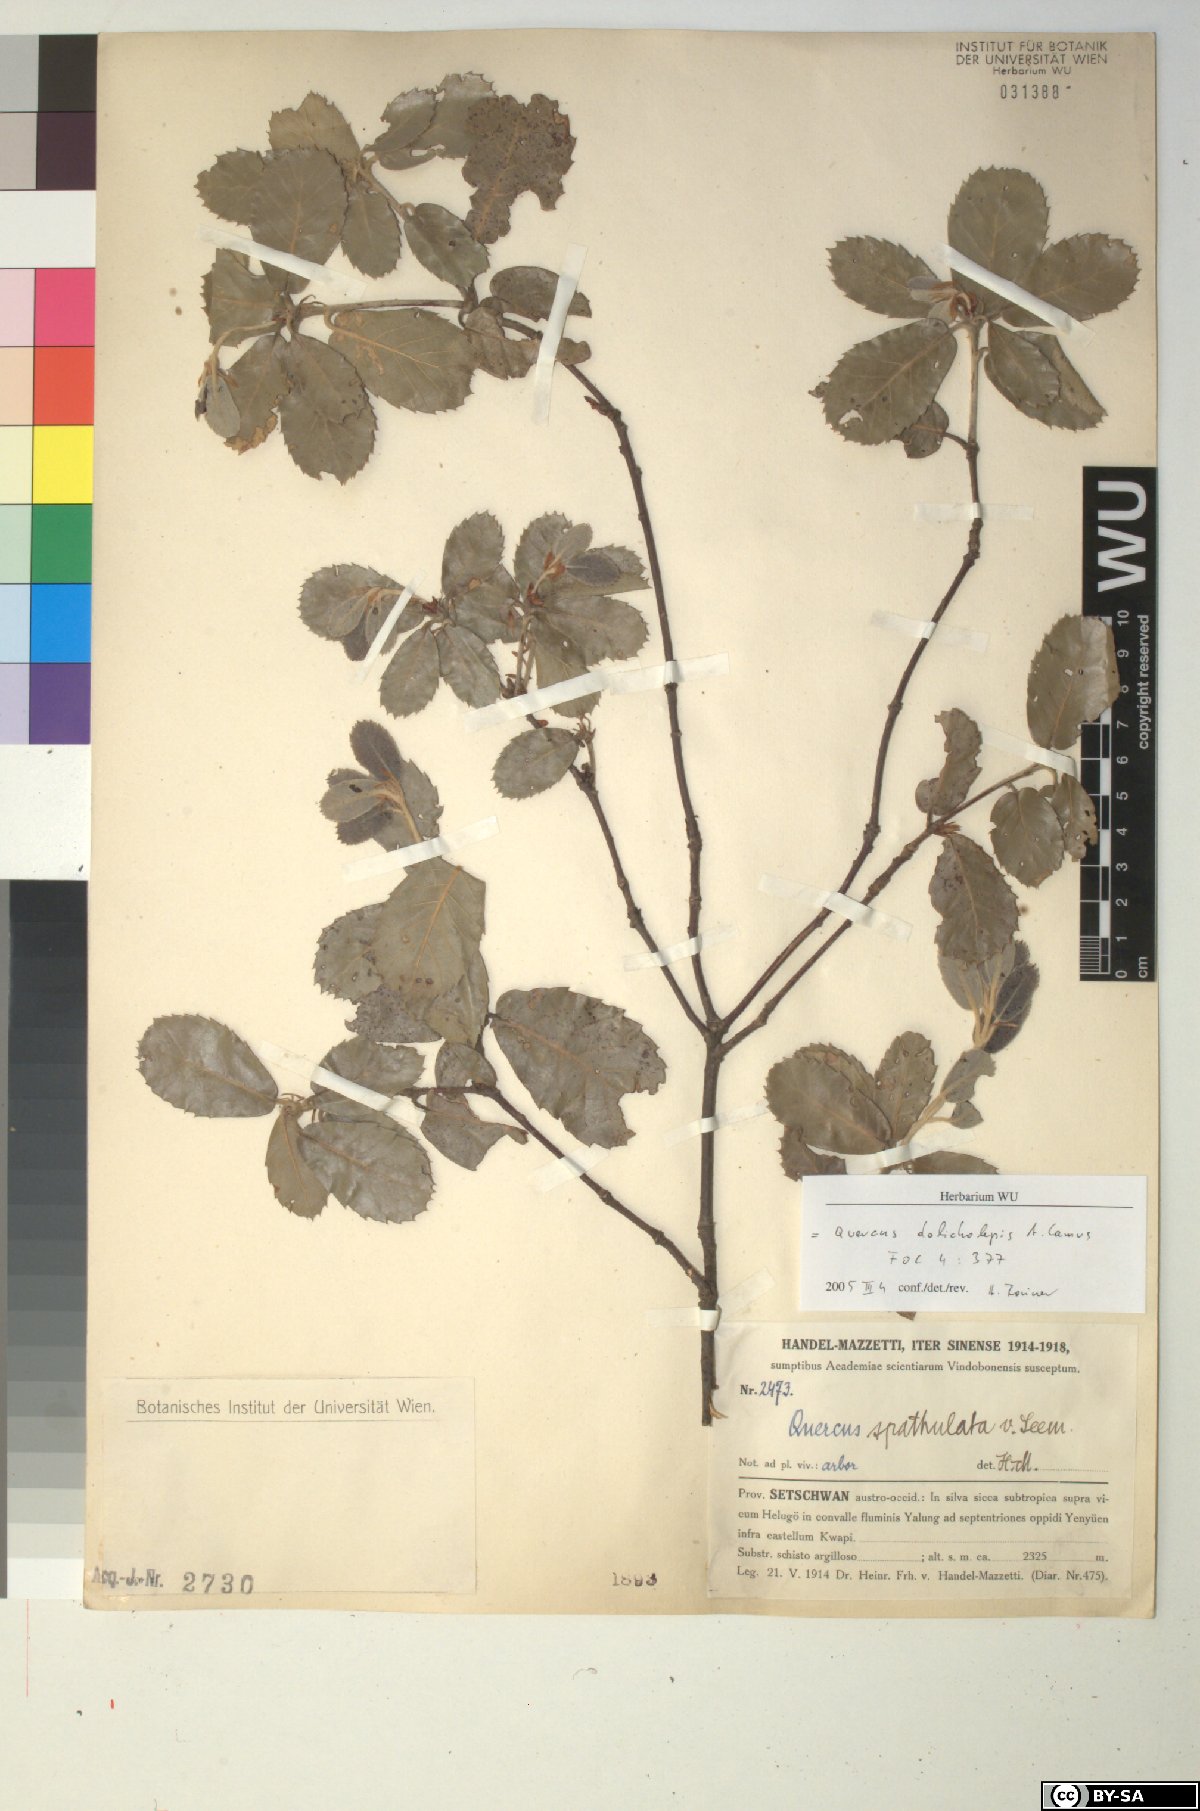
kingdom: Plantae
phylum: Tracheophyta
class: Magnoliopsida
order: Fagales
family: Fagaceae
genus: Quercus
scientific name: Quercus dolicholepis
